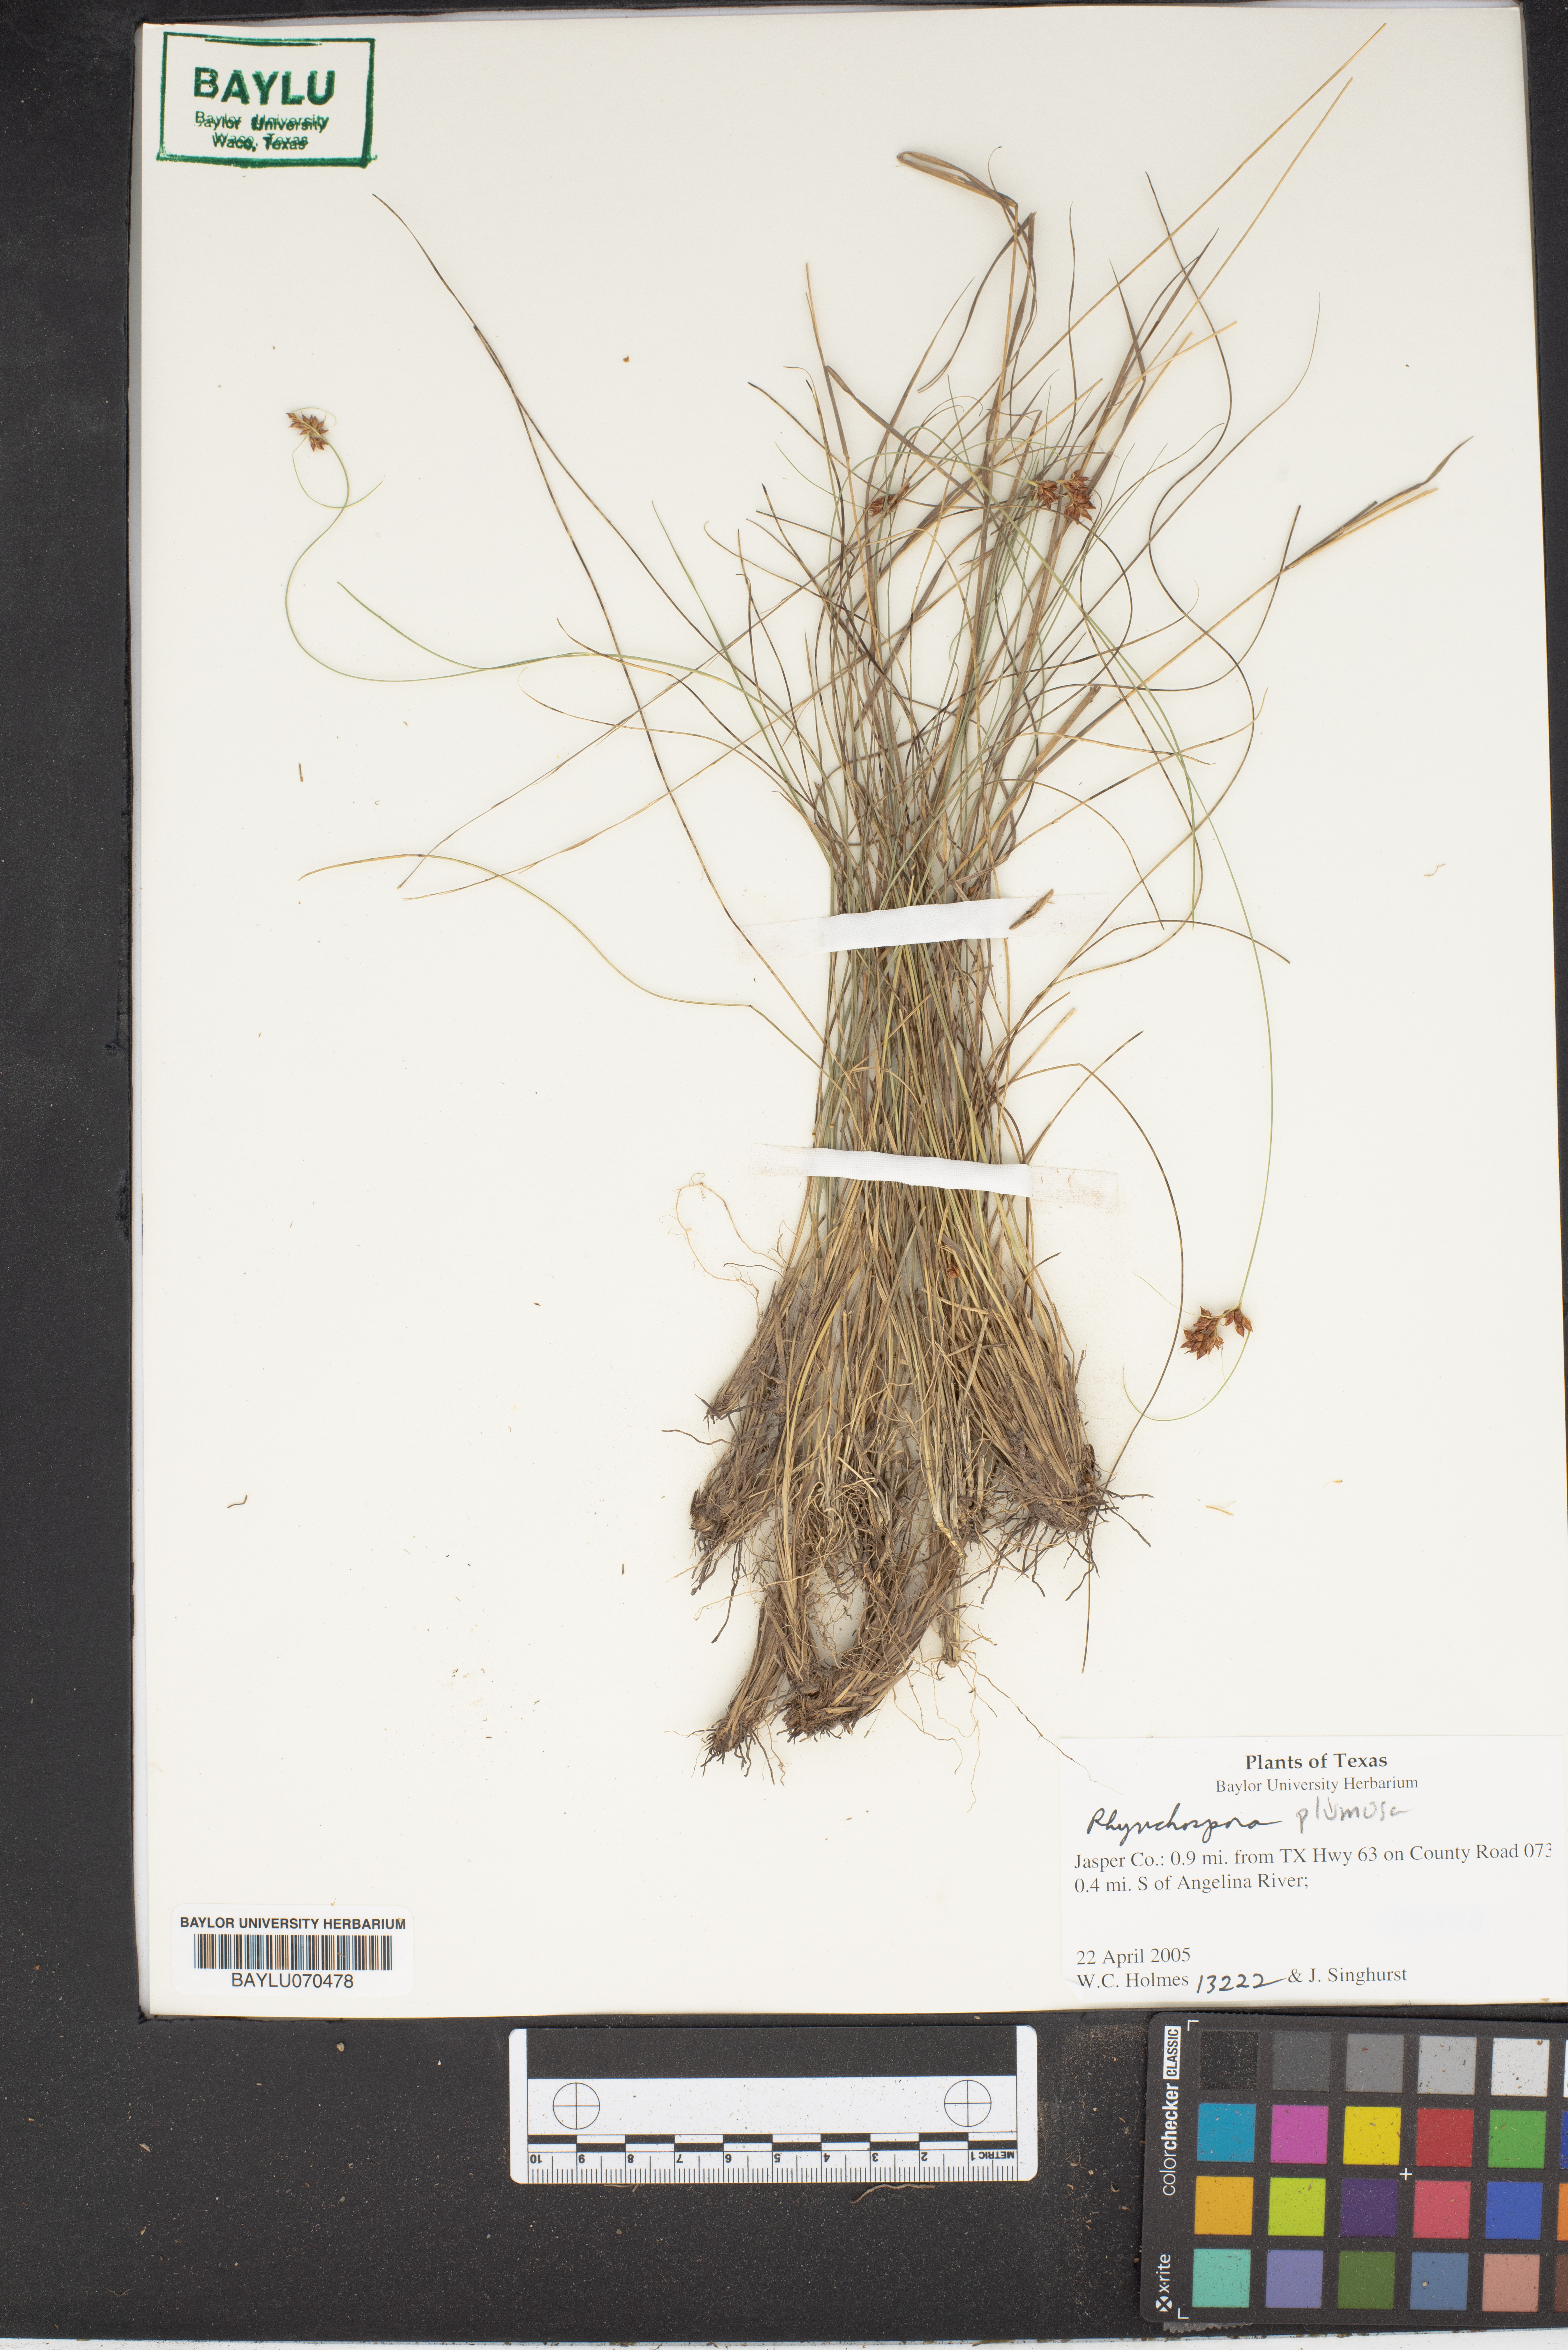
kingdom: Plantae
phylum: Tracheophyta
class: Liliopsida
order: Poales
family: Cyperaceae
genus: Rhynchospora
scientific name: Rhynchospora plumosa
